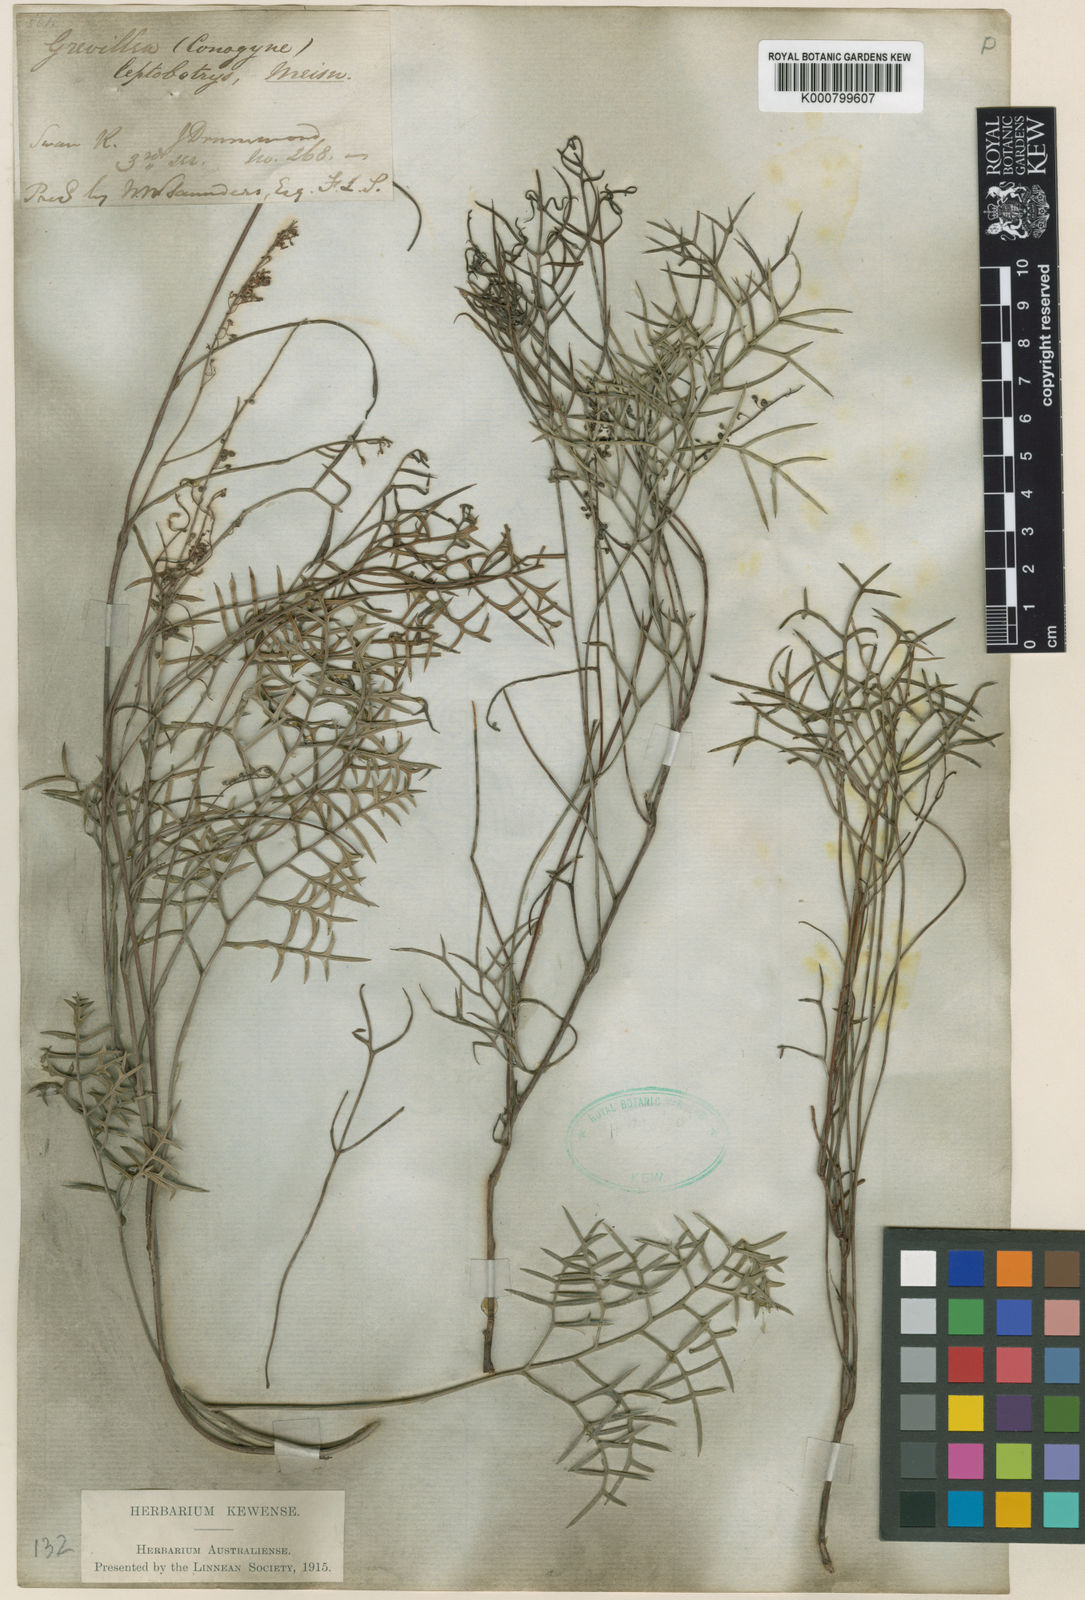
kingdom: Plantae
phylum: Tracheophyta
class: Magnoliopsida
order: Proteales
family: Proteaceae
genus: Grevillea
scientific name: Grevillea
